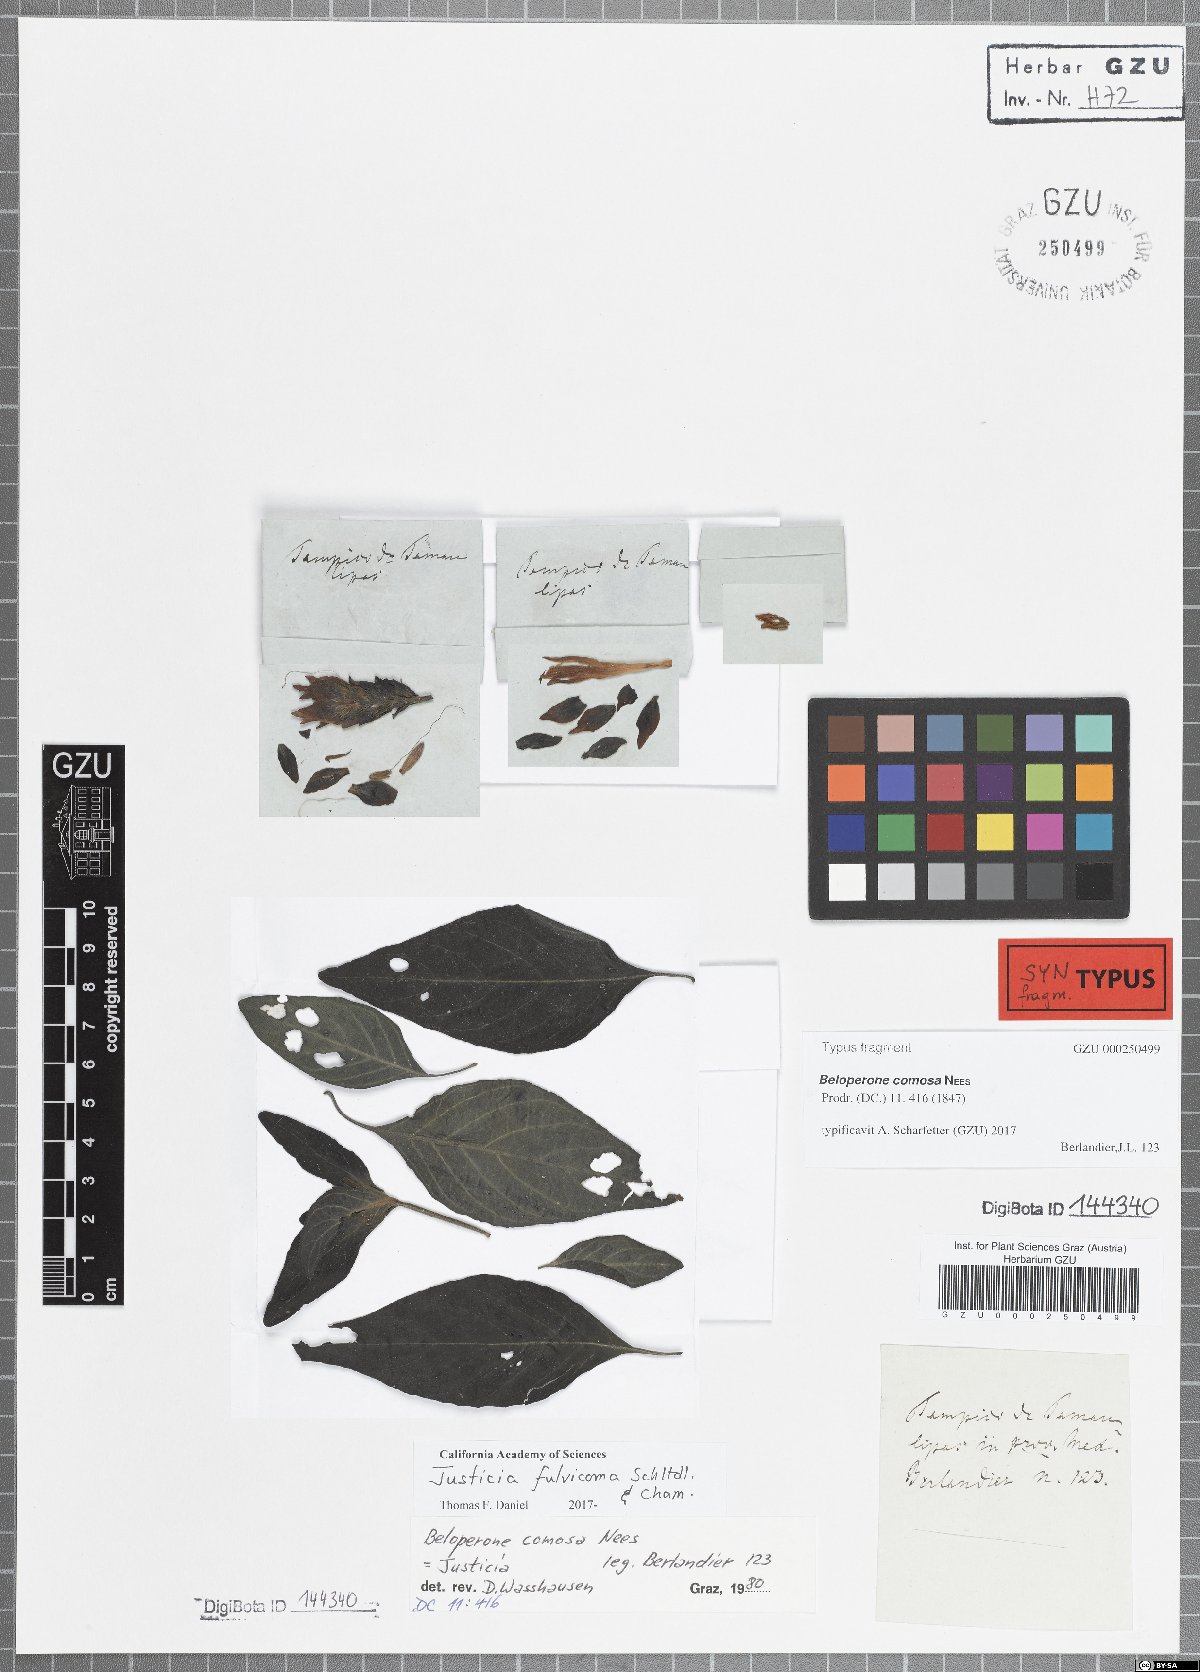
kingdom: Plantae
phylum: Tracheophyta
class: Magnoliopsida
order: Lamiales
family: Acanthaceae
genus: Justicia
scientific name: Justicia fulvicoma
